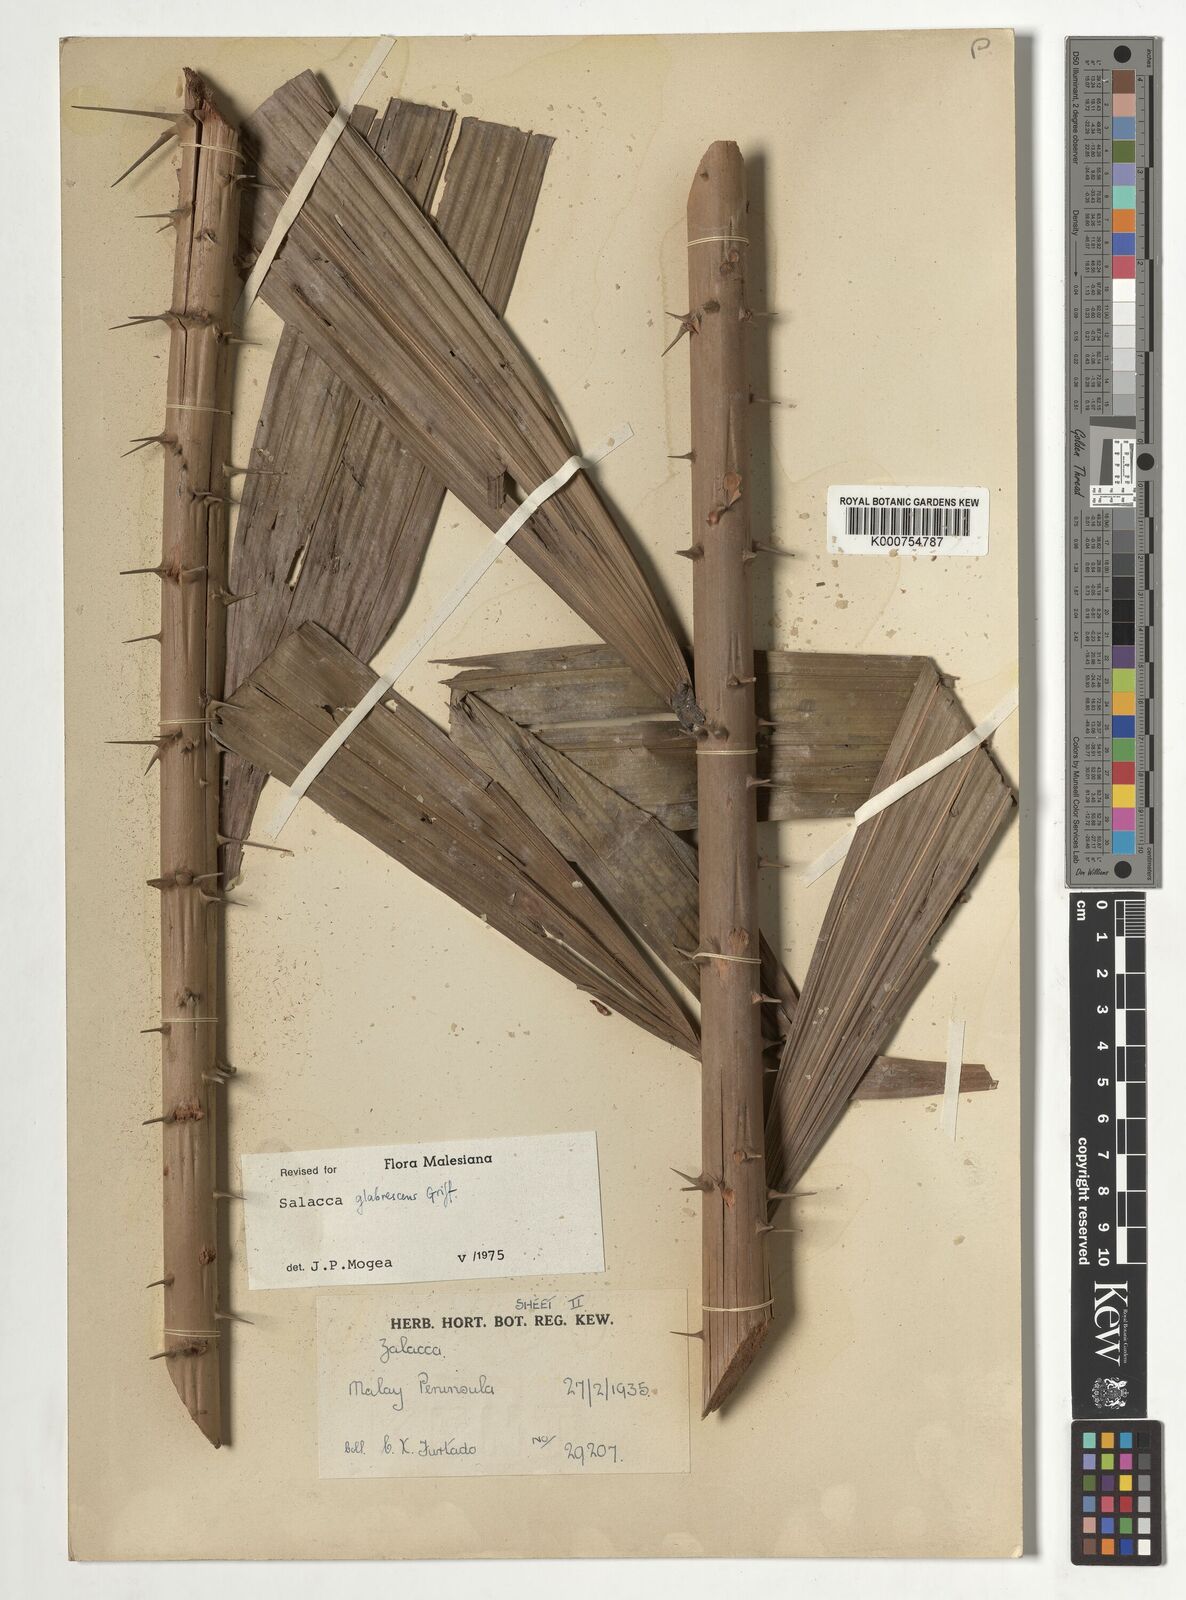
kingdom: Plantae
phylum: Tracheophyta
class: Liliopsida
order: Arecales
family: Arecaceae
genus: Salacca
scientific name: Salacca glabrescens
